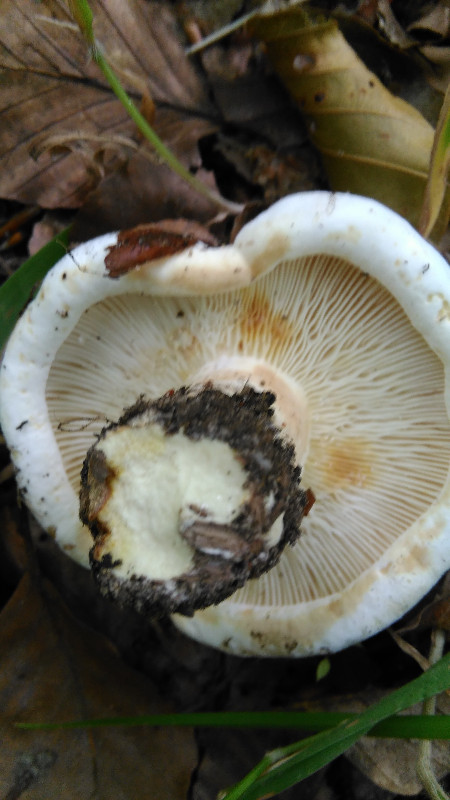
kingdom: Fungi
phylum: Basidiomycota
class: Agaricomycetes
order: Russulales
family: Russulaceae
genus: Lactifluus
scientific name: Lactifluus vellereus
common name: hvidfiltet mælkehat
